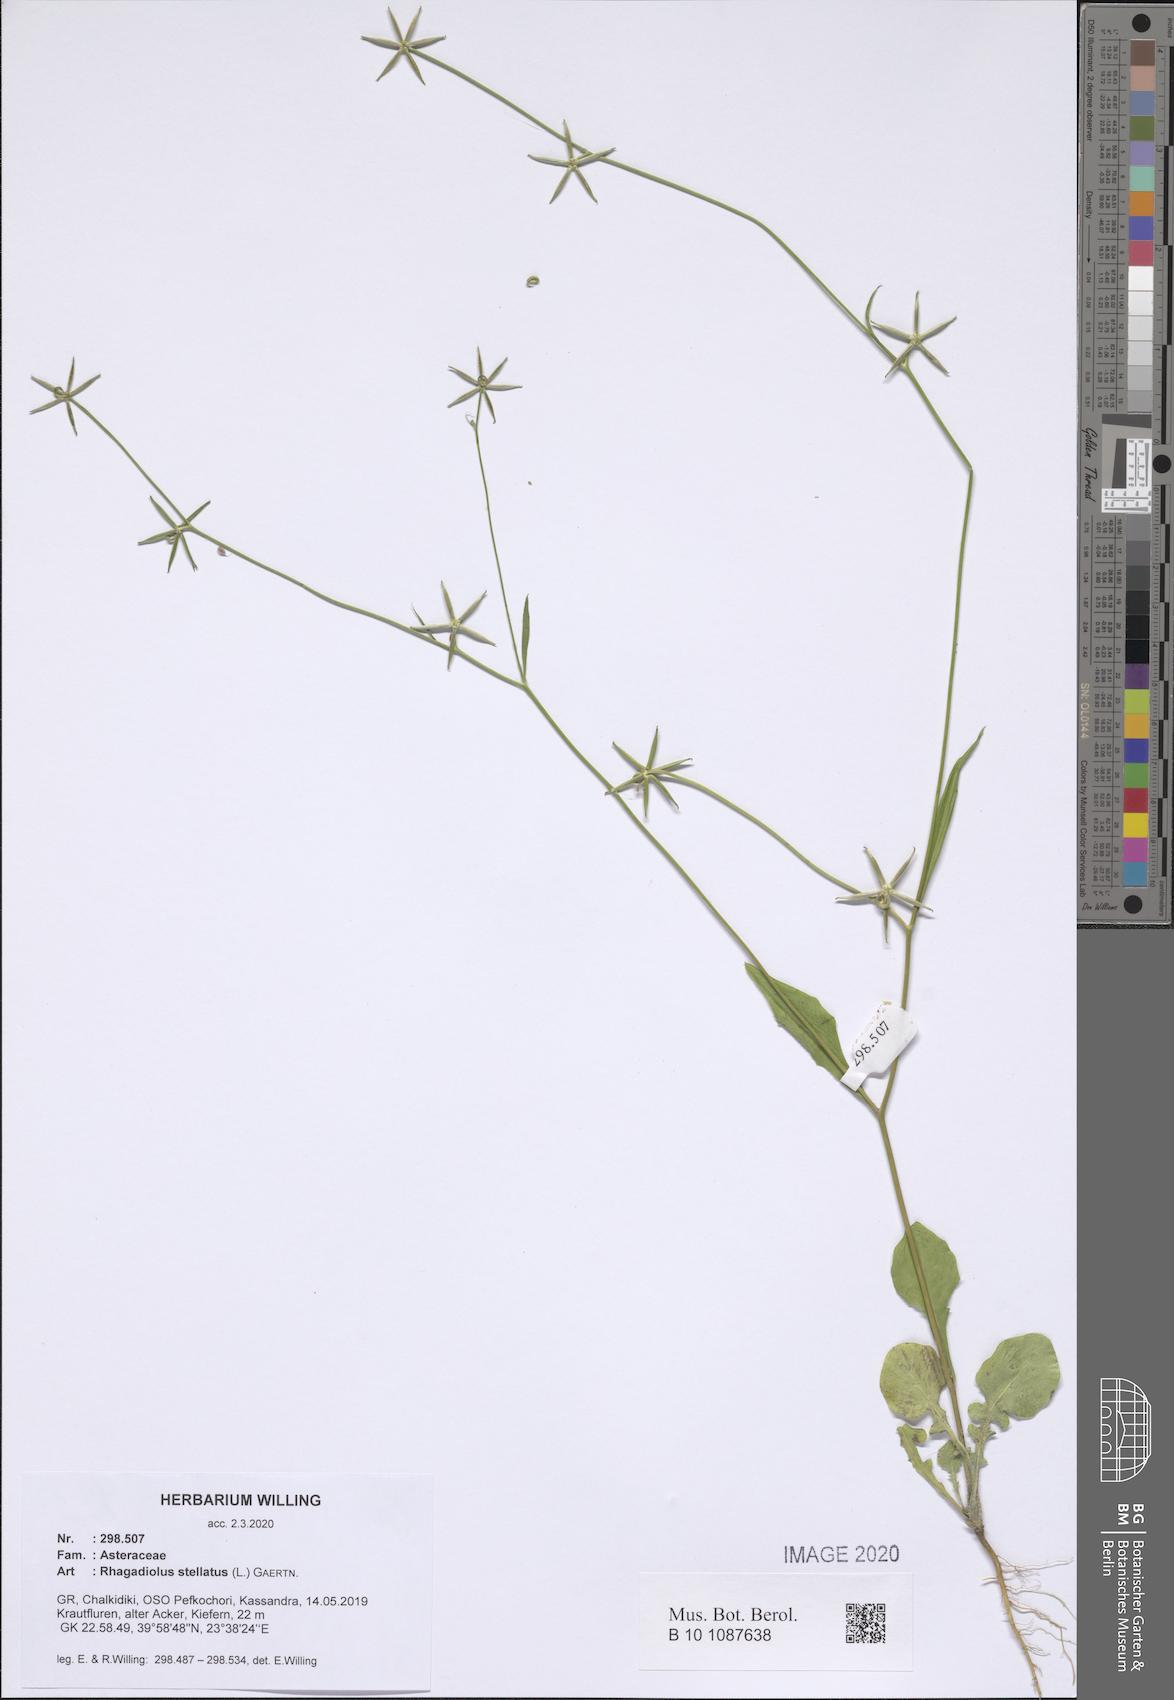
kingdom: Plantae
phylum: Tracheophyta
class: Magnoliopsida
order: Asterales
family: Asteraceae
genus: Rhagadiolus
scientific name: Rhagadiolus stellatus
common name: Star hawkbit
